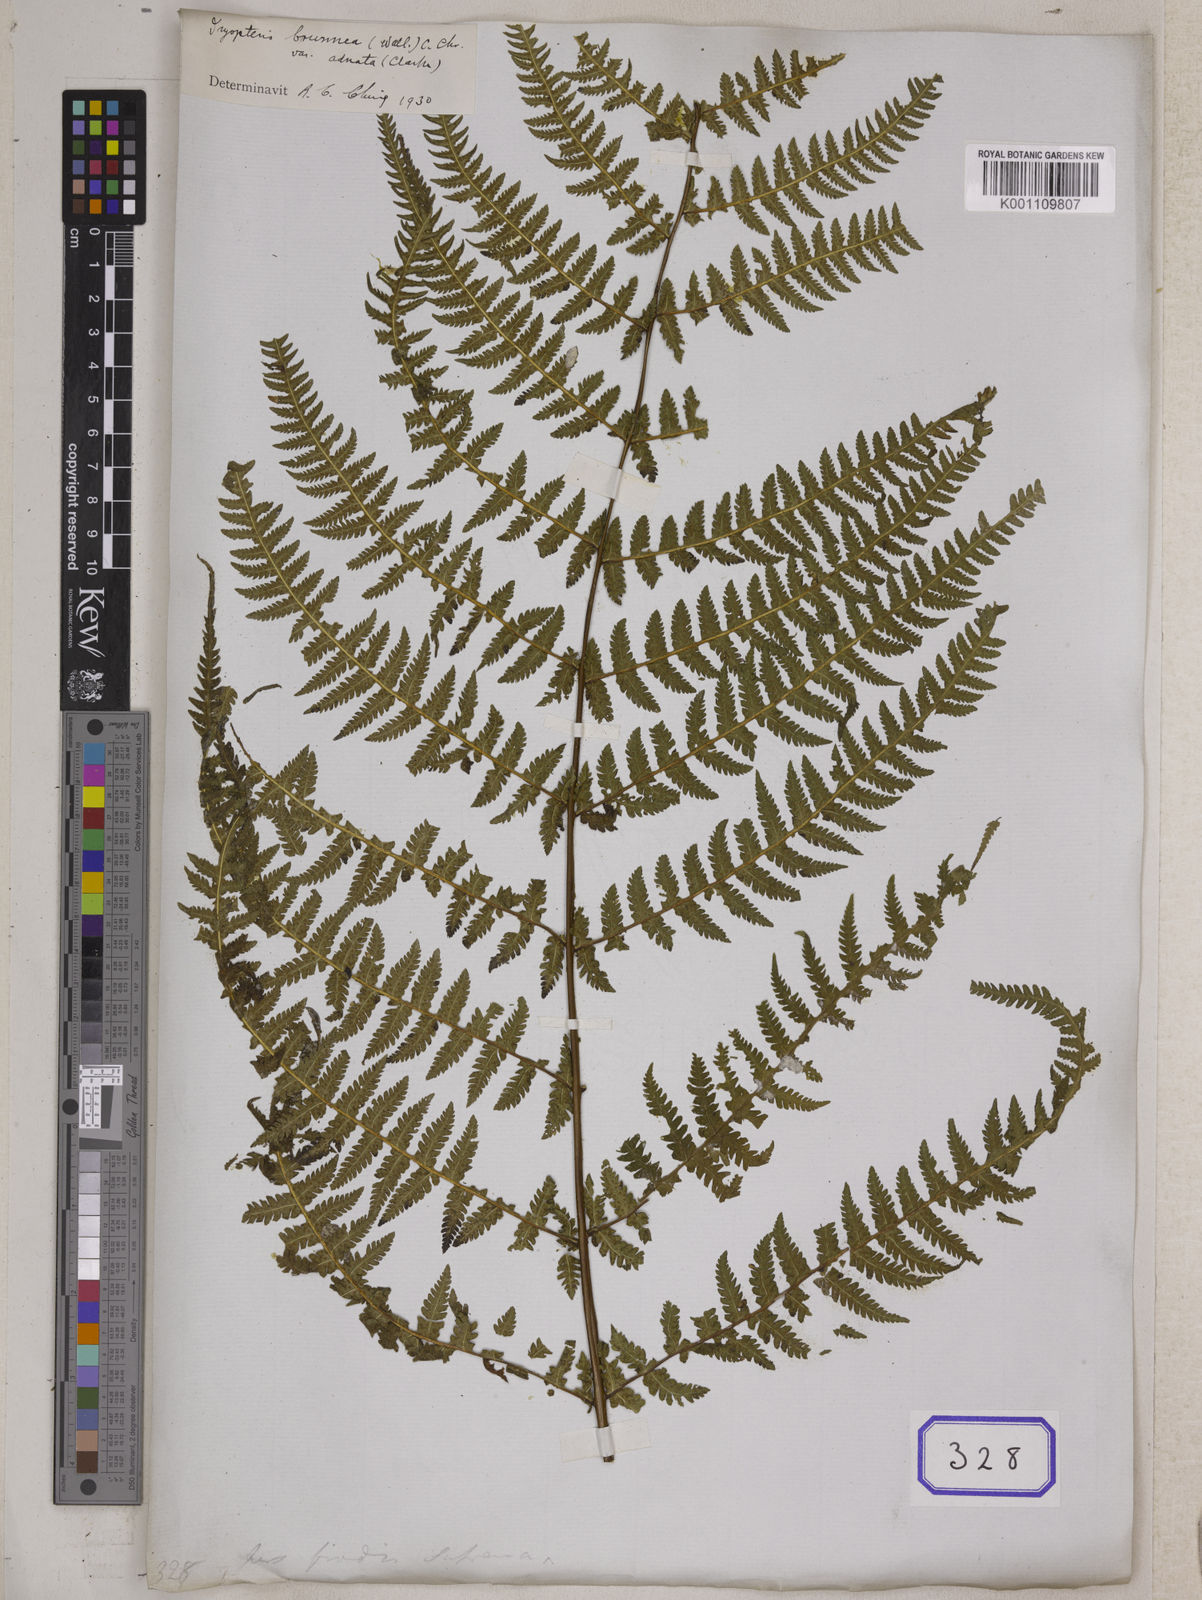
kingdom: Plantae
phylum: Tracheophyta
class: Polypodiopsida
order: Polypodiales
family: Thelypteridaceae
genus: Pseudophegopteris
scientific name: Pseudophegopteris paludosa
